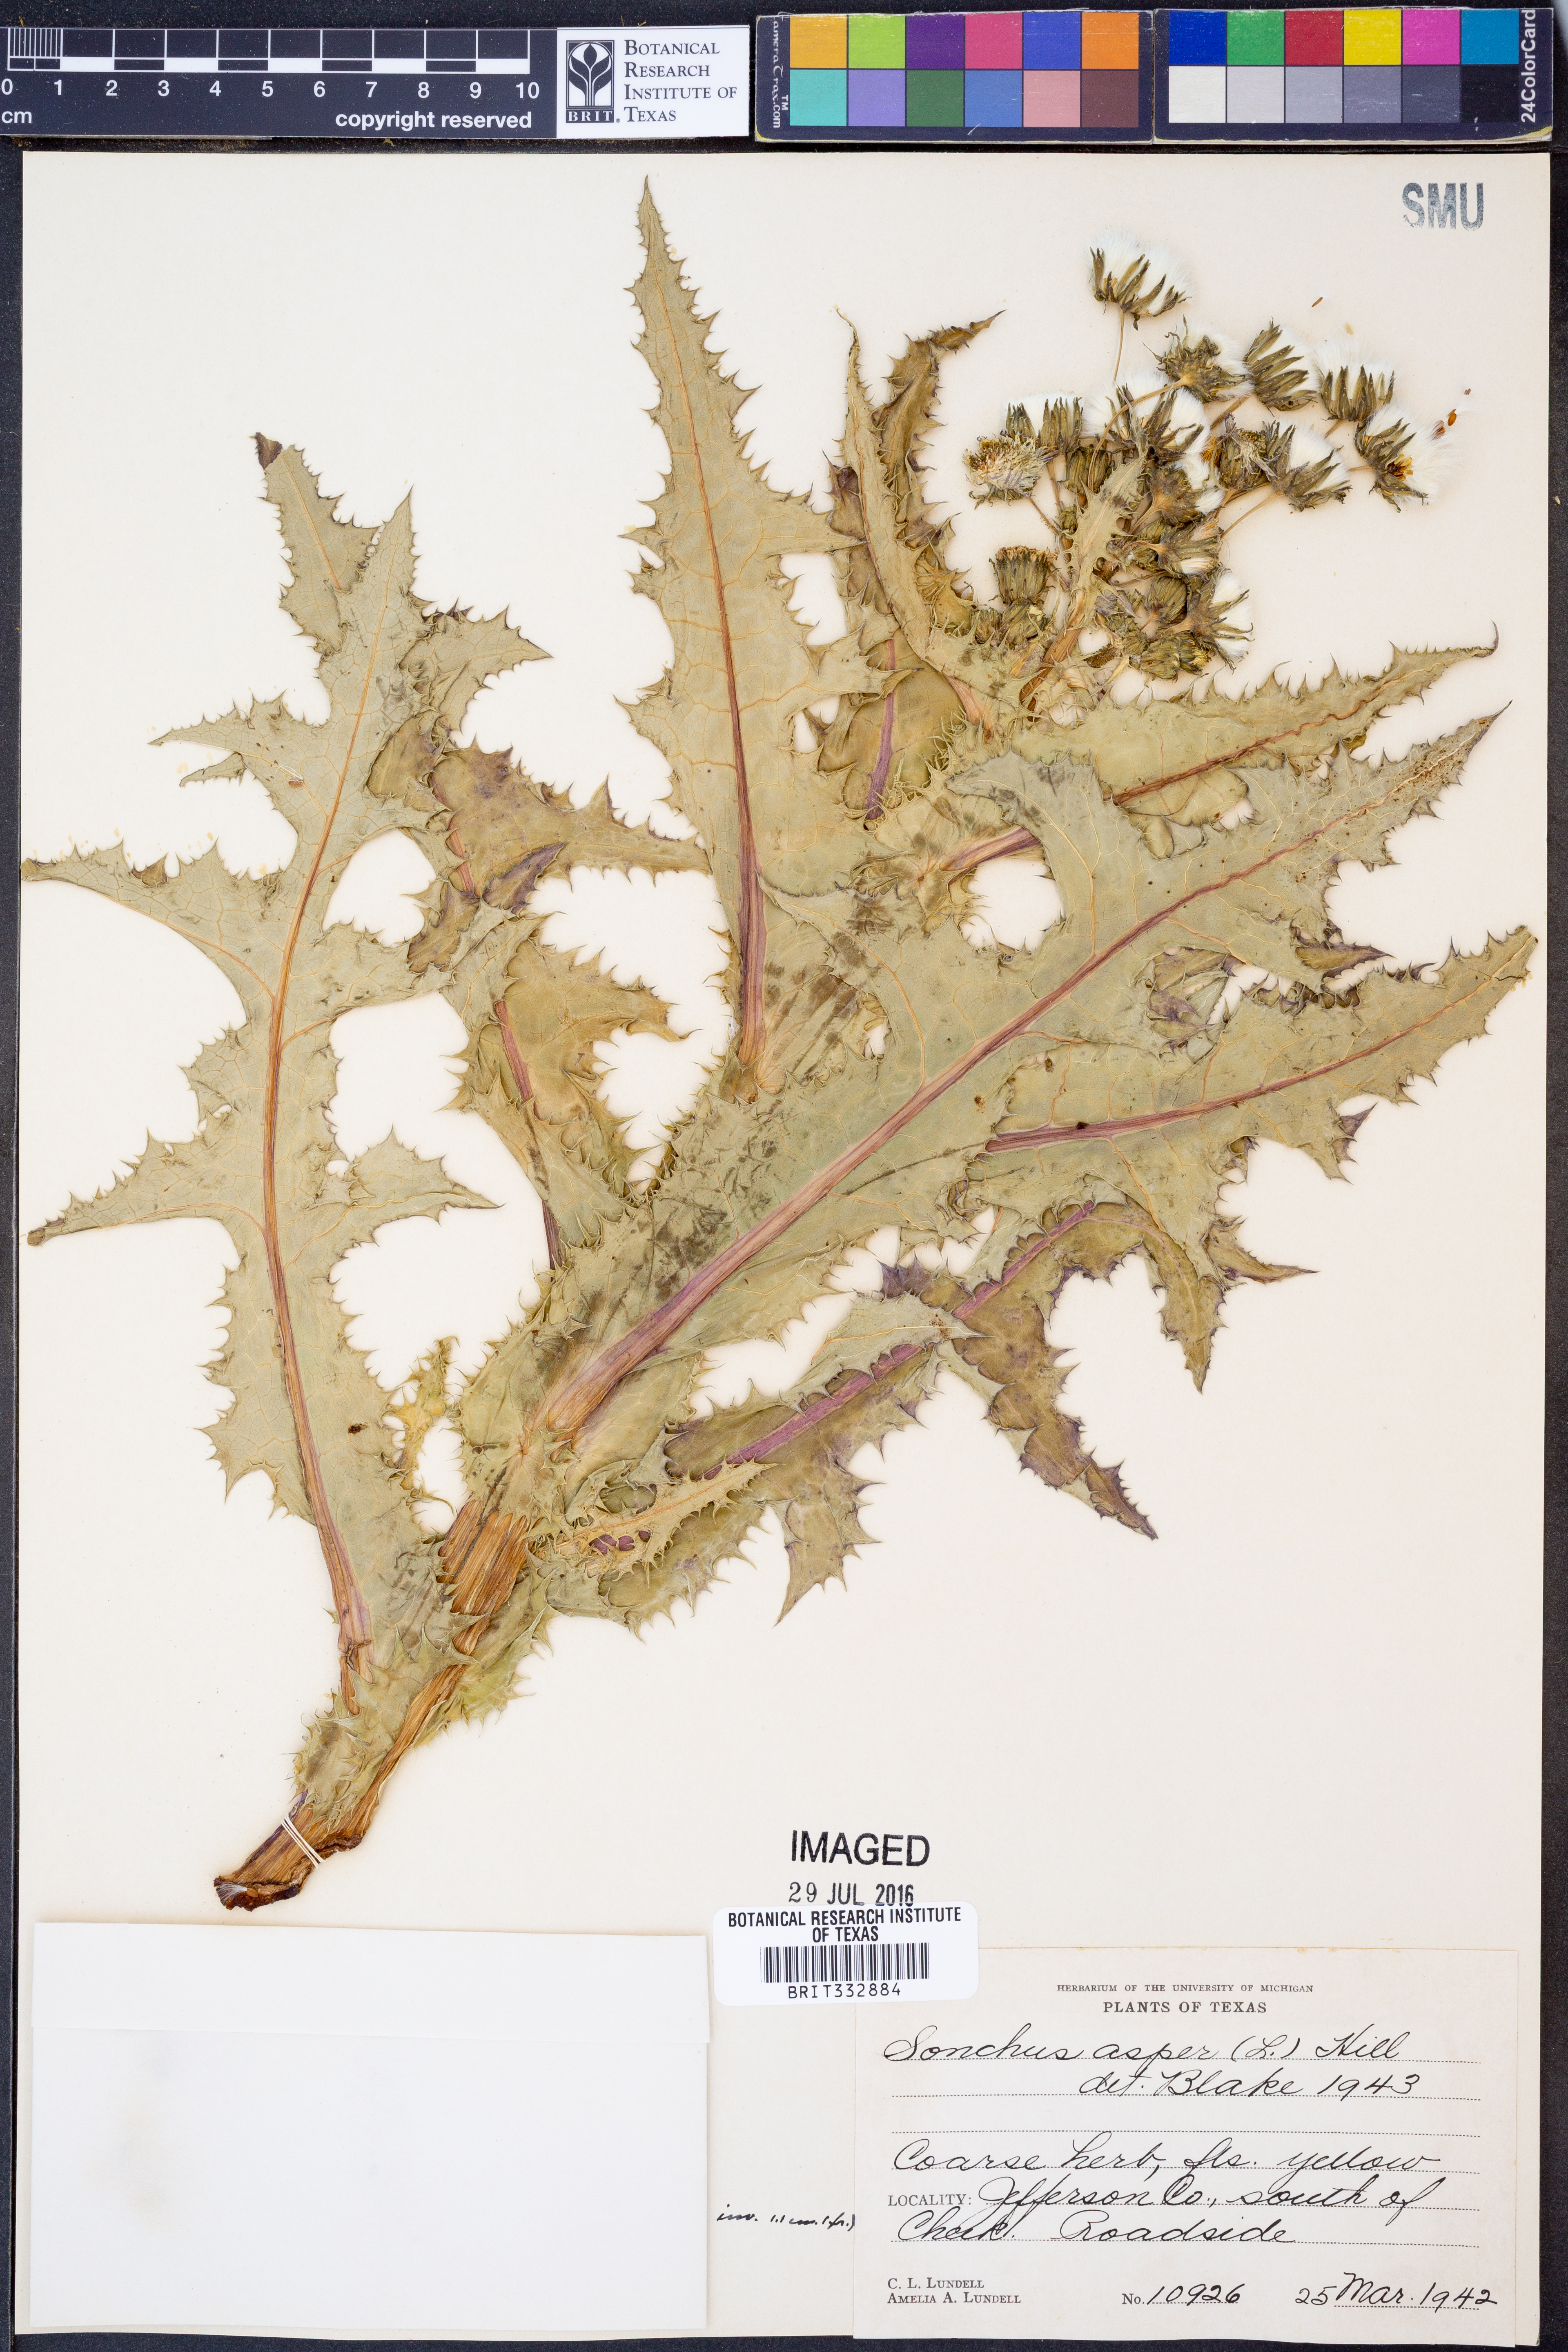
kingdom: Plantae
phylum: Tracheophyta
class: Magnoliopsida
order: Asterales
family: Asteraceae
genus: Sonchus
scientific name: Sonchus asper
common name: Prickly sow-thistle
